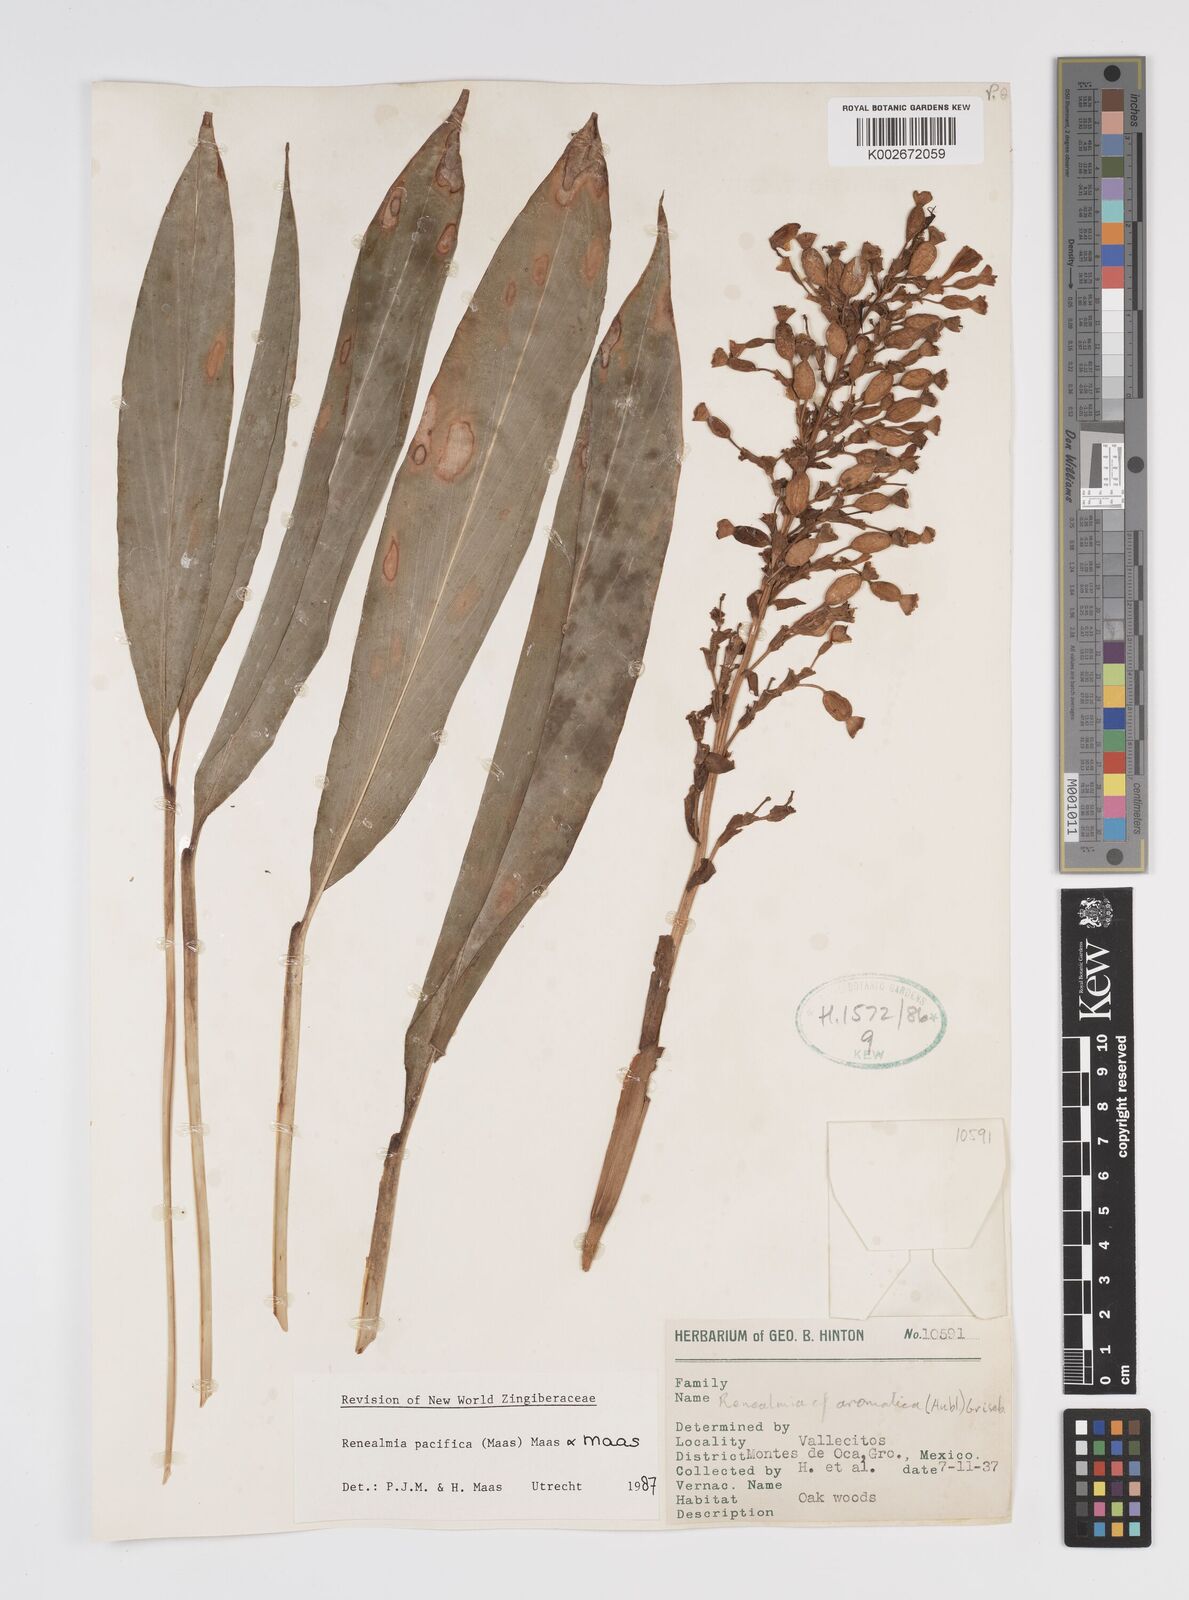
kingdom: Plantae
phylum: Tracheophyta
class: Liliopsida
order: Zingiberales
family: Zingiberaceae
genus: Renealmia
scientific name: Renealmia pacifica
